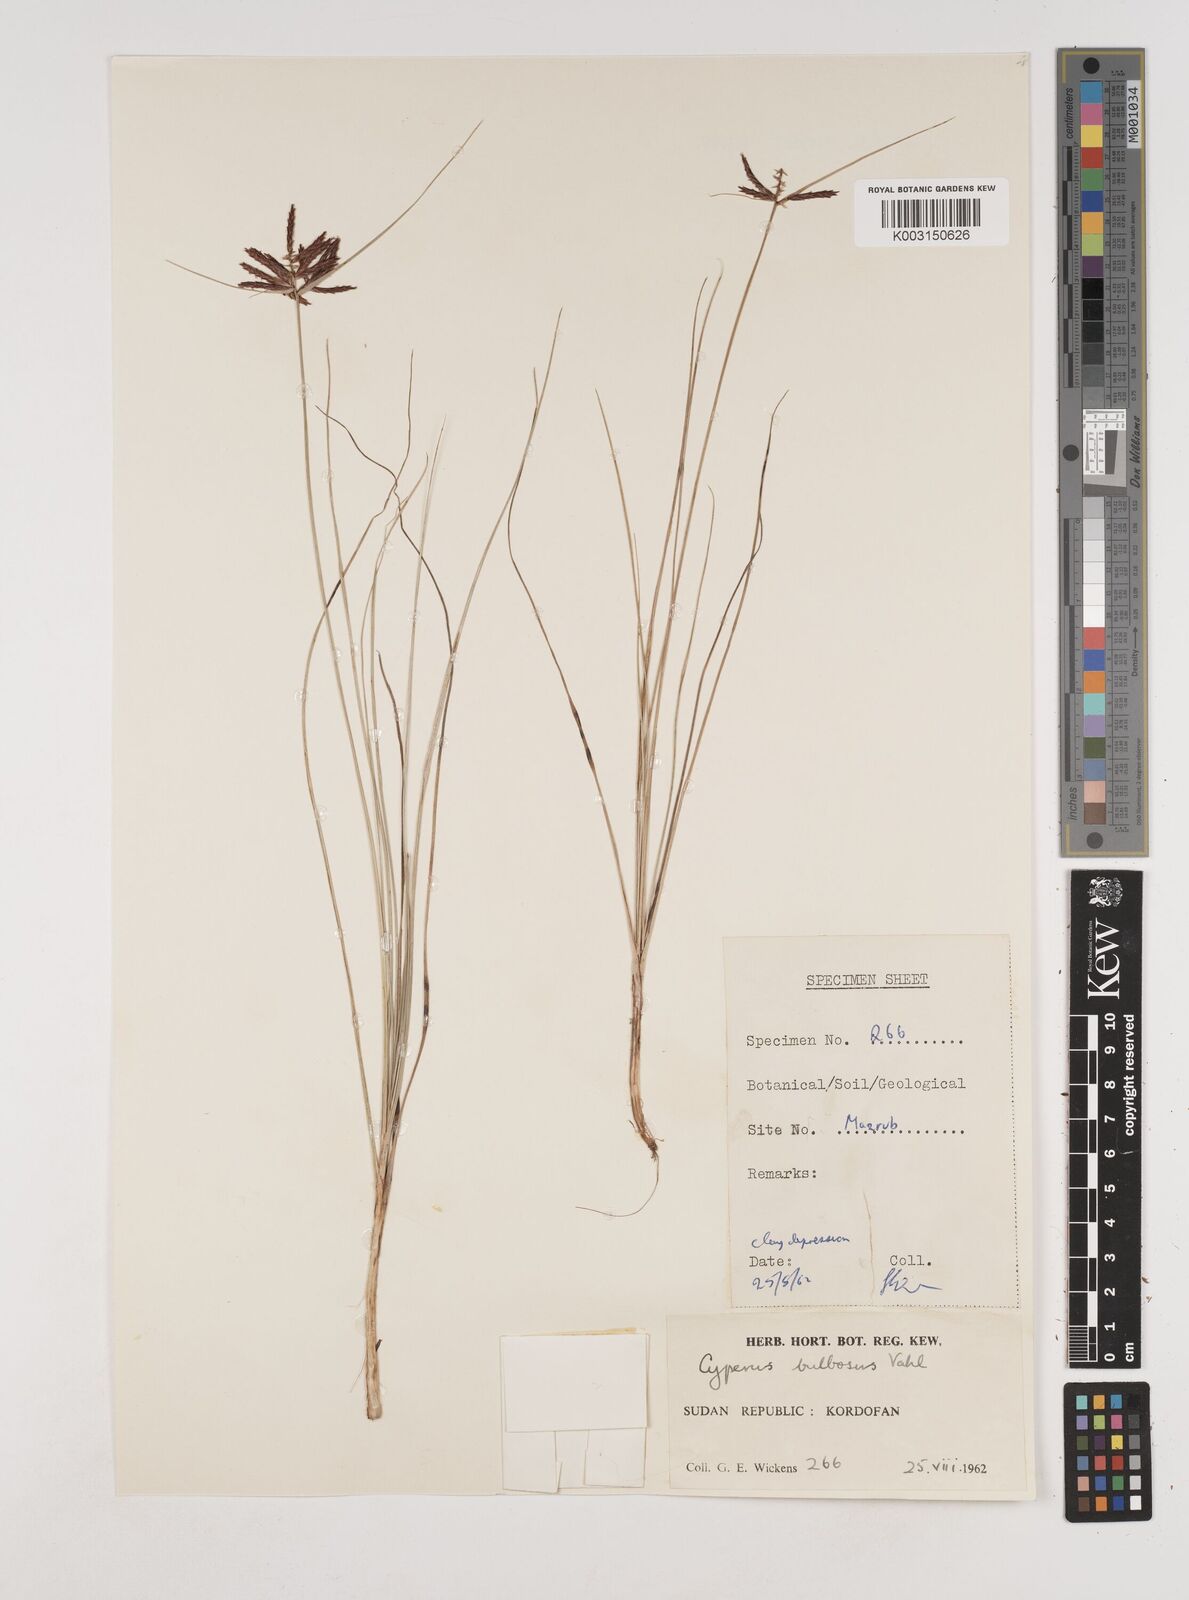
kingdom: Plantae
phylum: Tracheophyta
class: Liliopsida
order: Poales
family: Cyperaceae
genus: Cyperus
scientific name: Cyperus bulbosus
